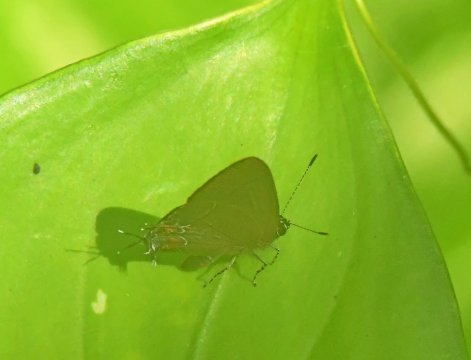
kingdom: Animalia
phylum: Arthropoda
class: Insecta
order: Lepidoptera
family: Lycaenidae
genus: Thecla
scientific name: Thecla cerata
